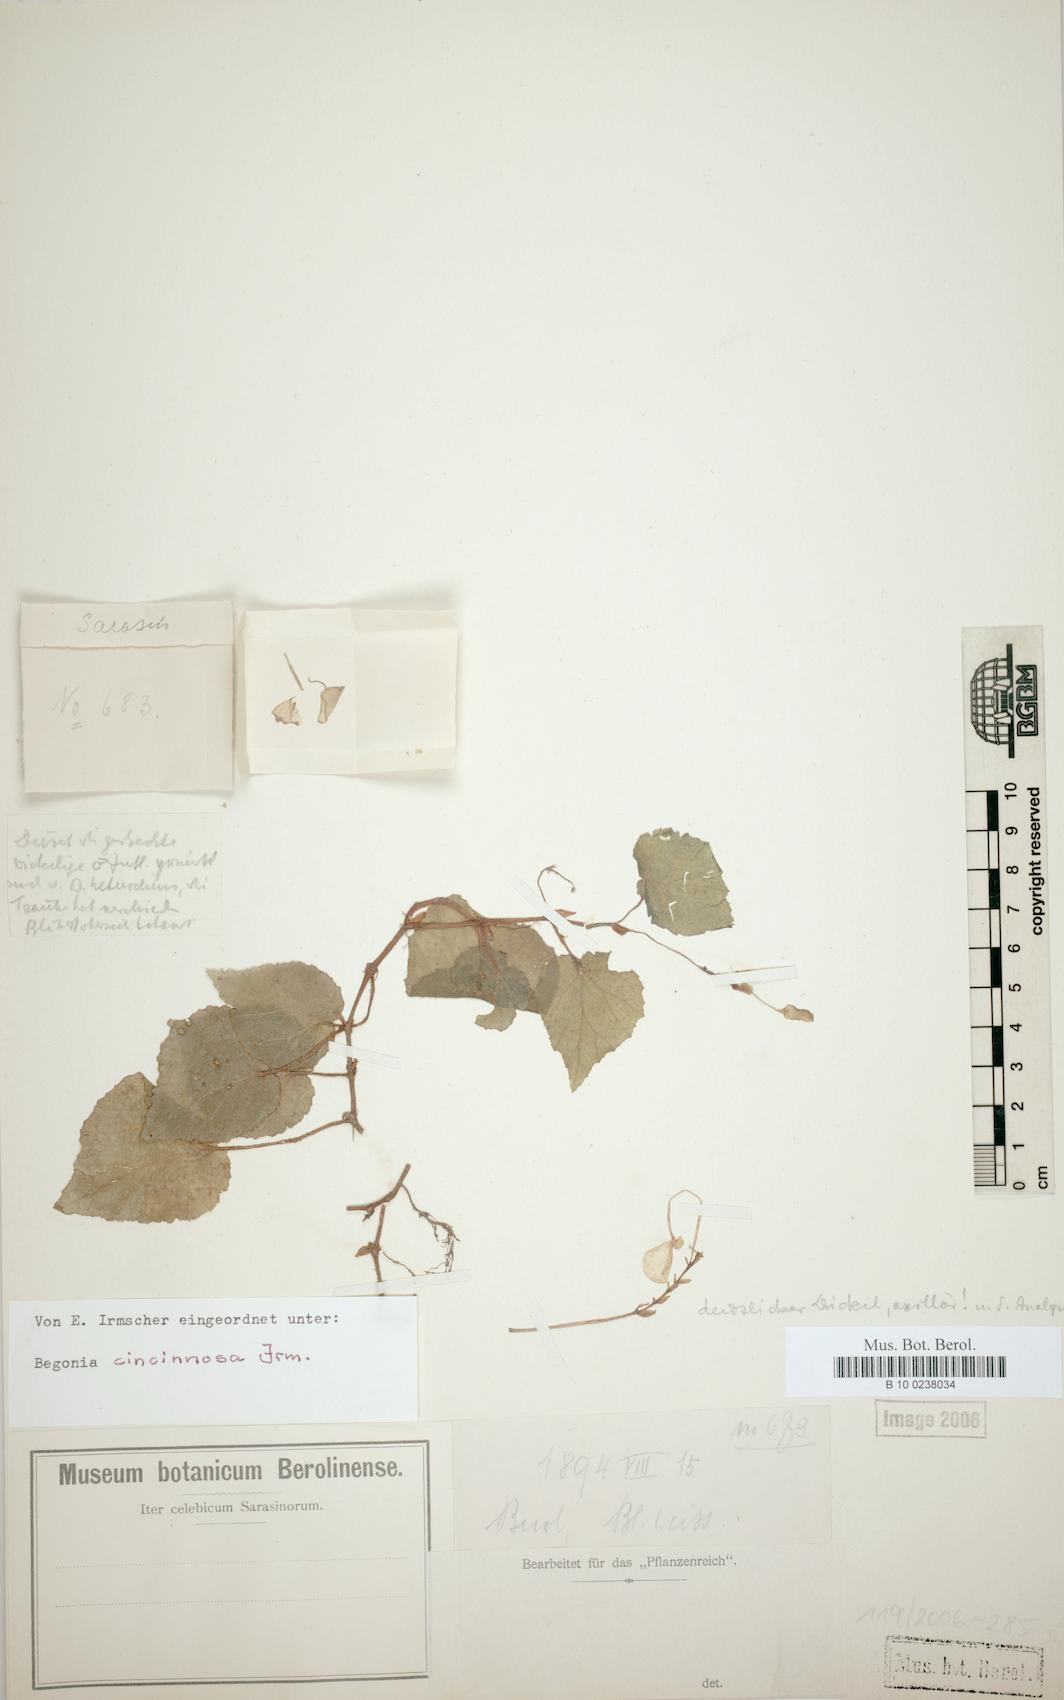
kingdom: Plantae
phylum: Tracheophyta
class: Magnoliopsida
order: Cucurbitales
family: Begoniaceae
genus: Begonia
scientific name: Begonia
